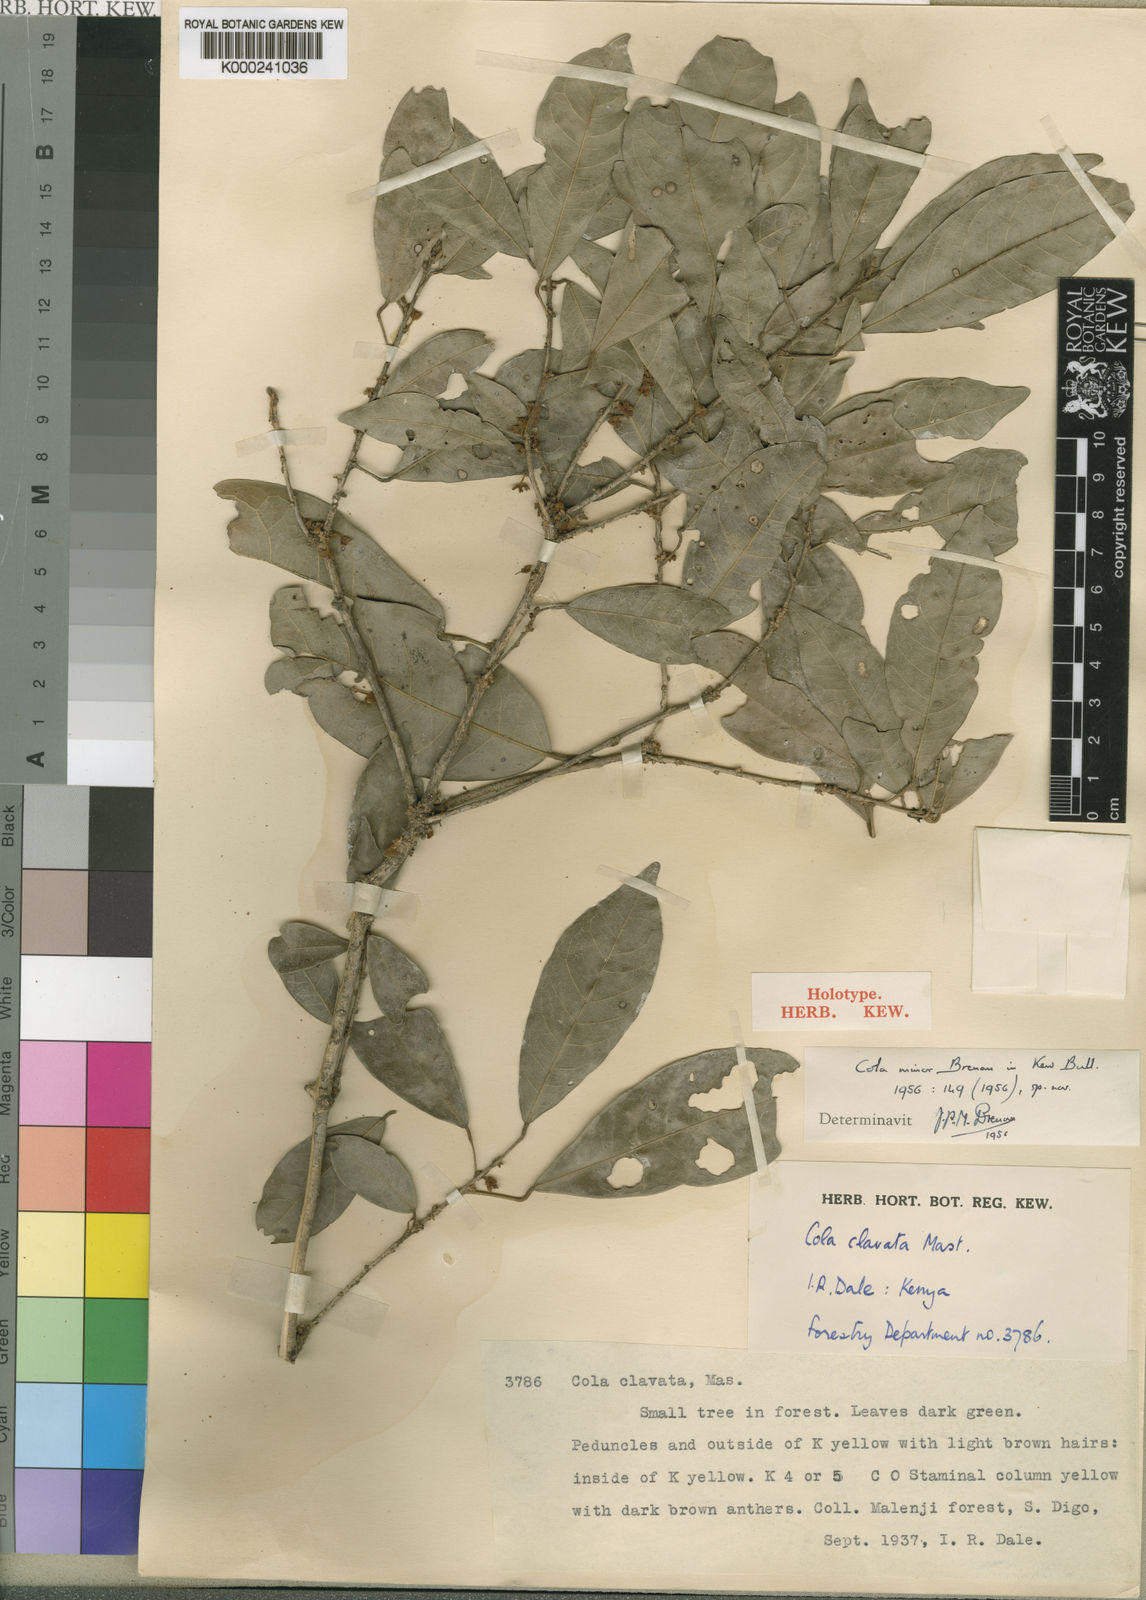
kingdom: Plantae
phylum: Tracheophyta
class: Magnoliopsida
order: Malvales
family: Malvaceae
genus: Cola
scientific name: Cola minor
